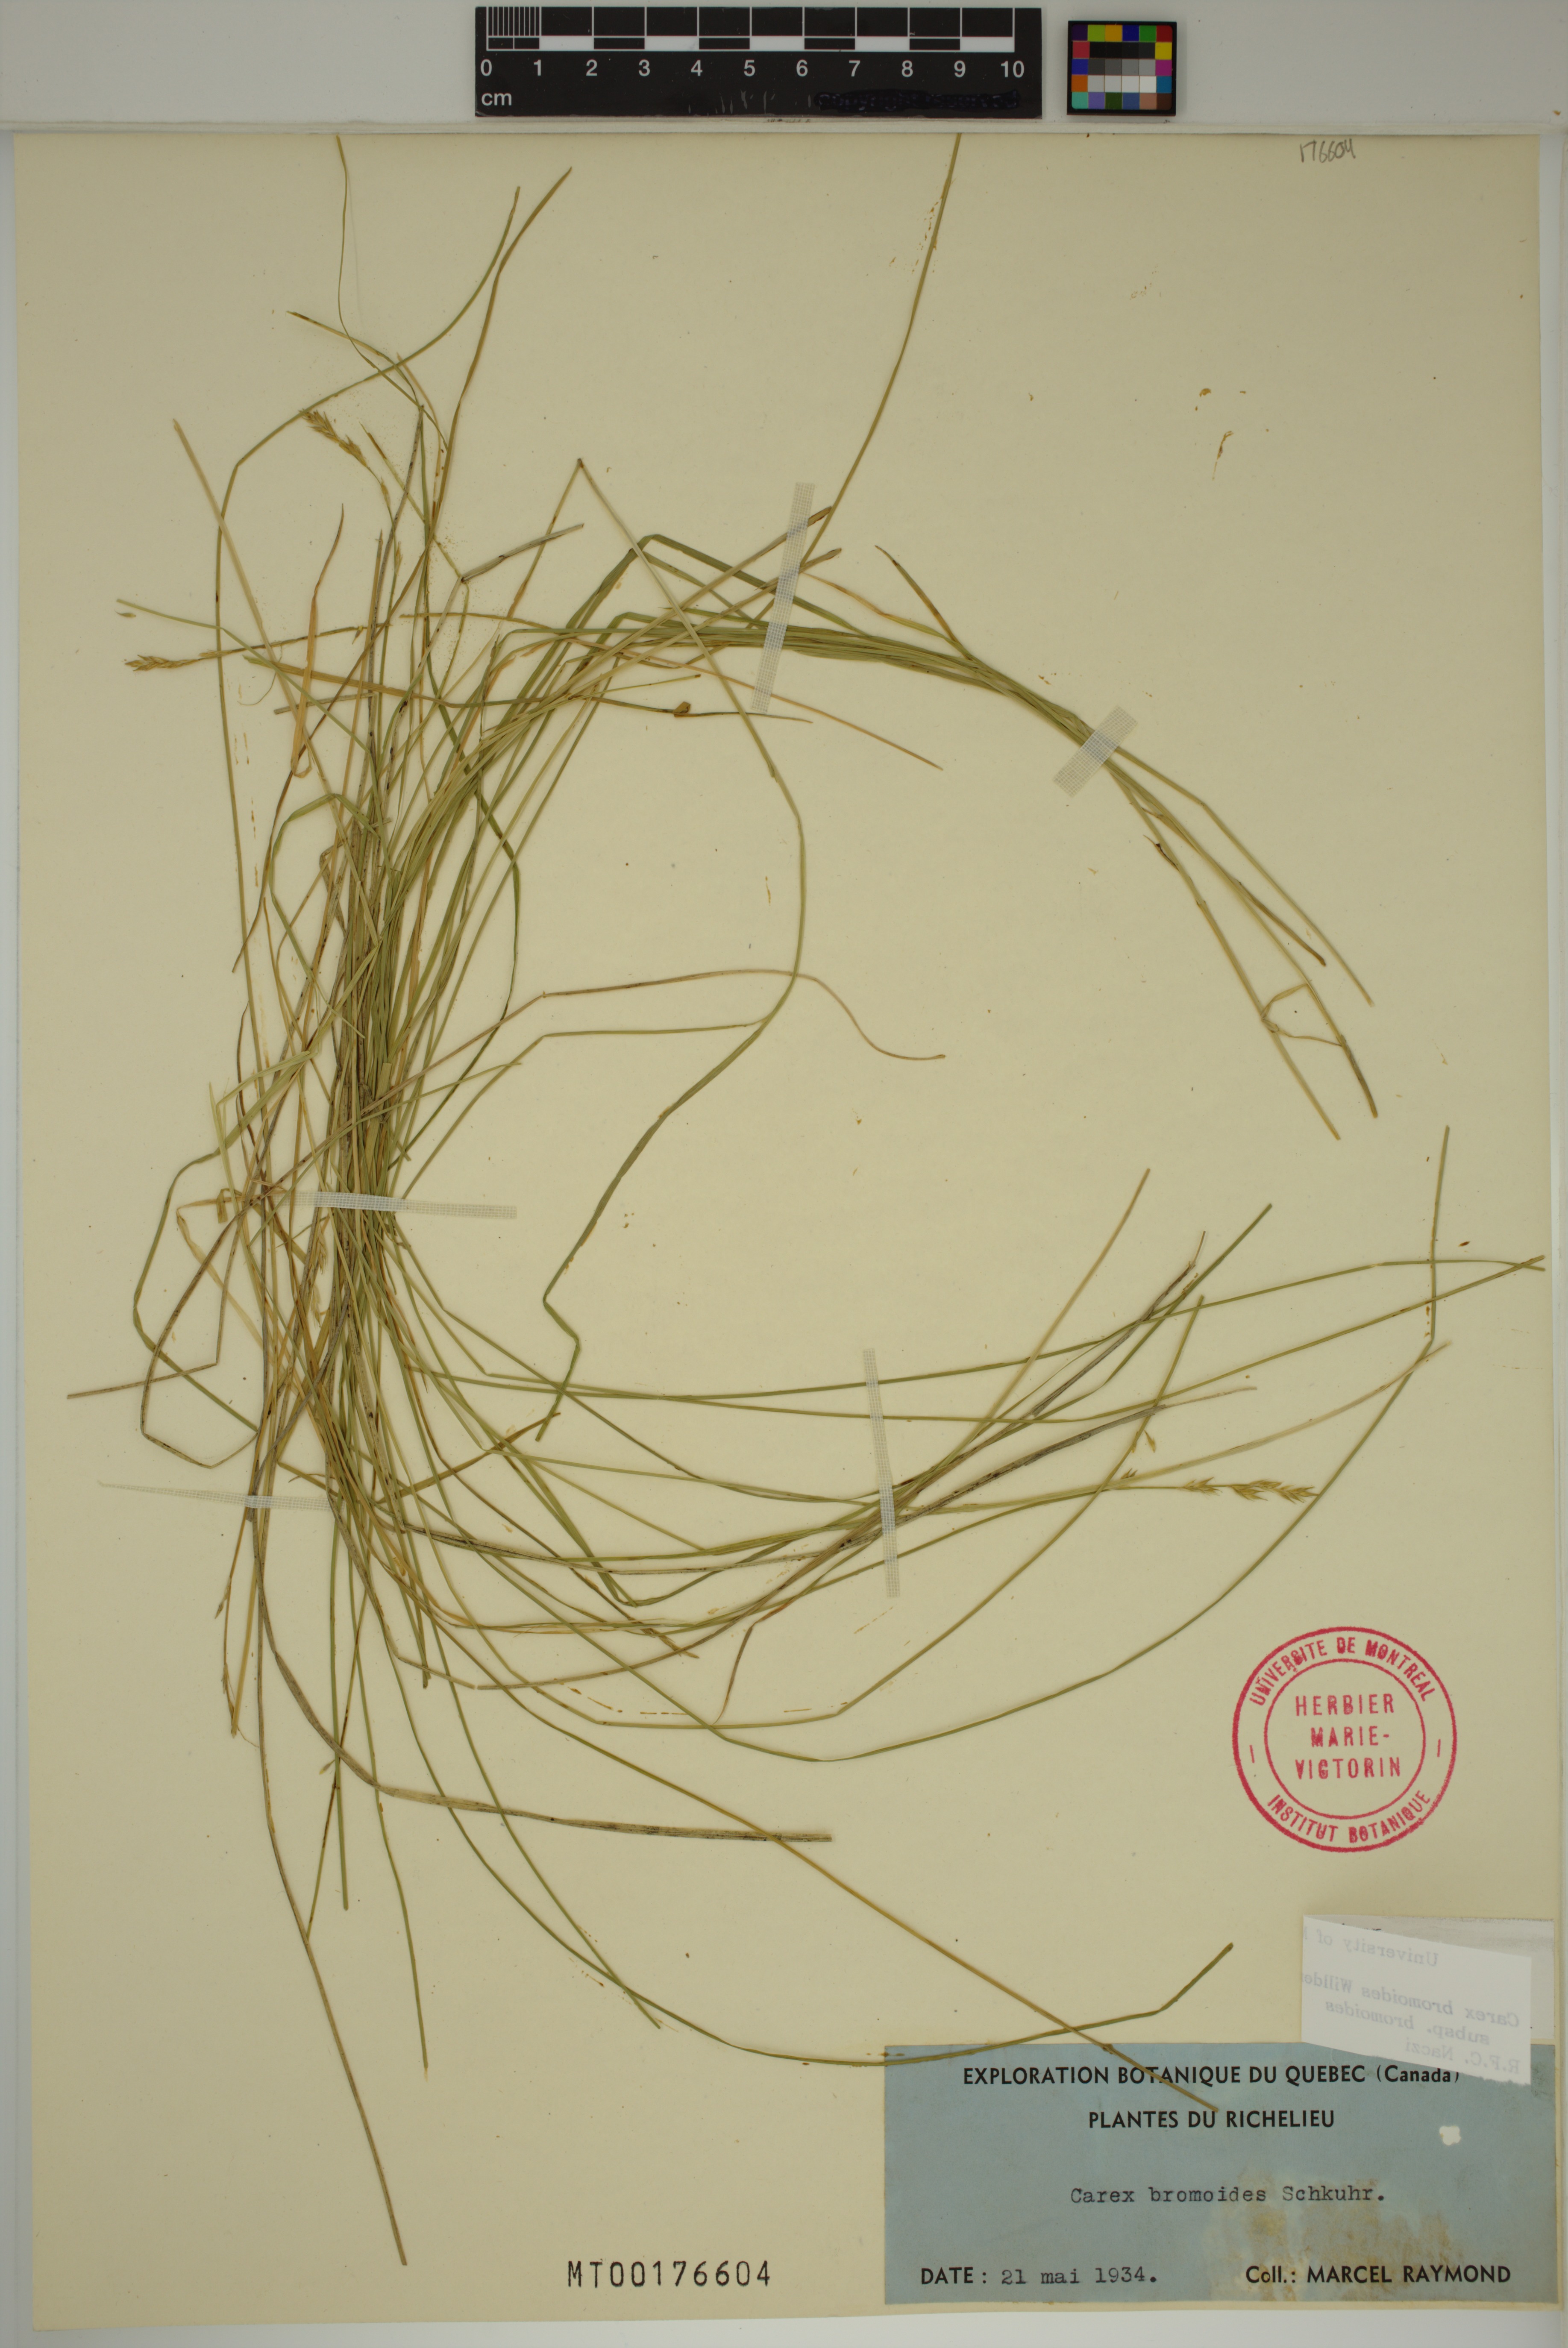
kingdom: Plantae
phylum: Tracheophyta
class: Liliopsida
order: Poales
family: Cyperaceae
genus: Carex
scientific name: Carex bromoides
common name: Brome hummock sedge
